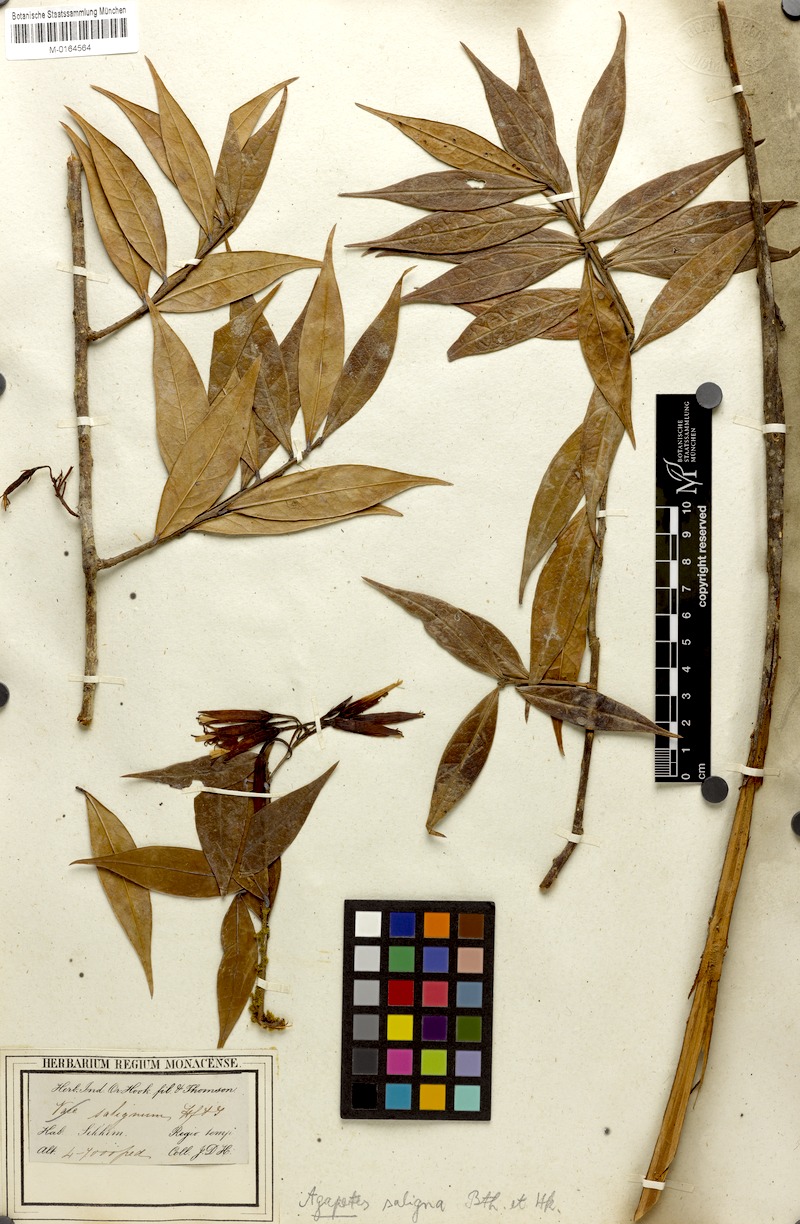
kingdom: Plantae
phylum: Tracheophyta
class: Magnoliopsida
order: Ericales
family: Ericaceae
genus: Agapetes
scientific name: Agapetes saligna
